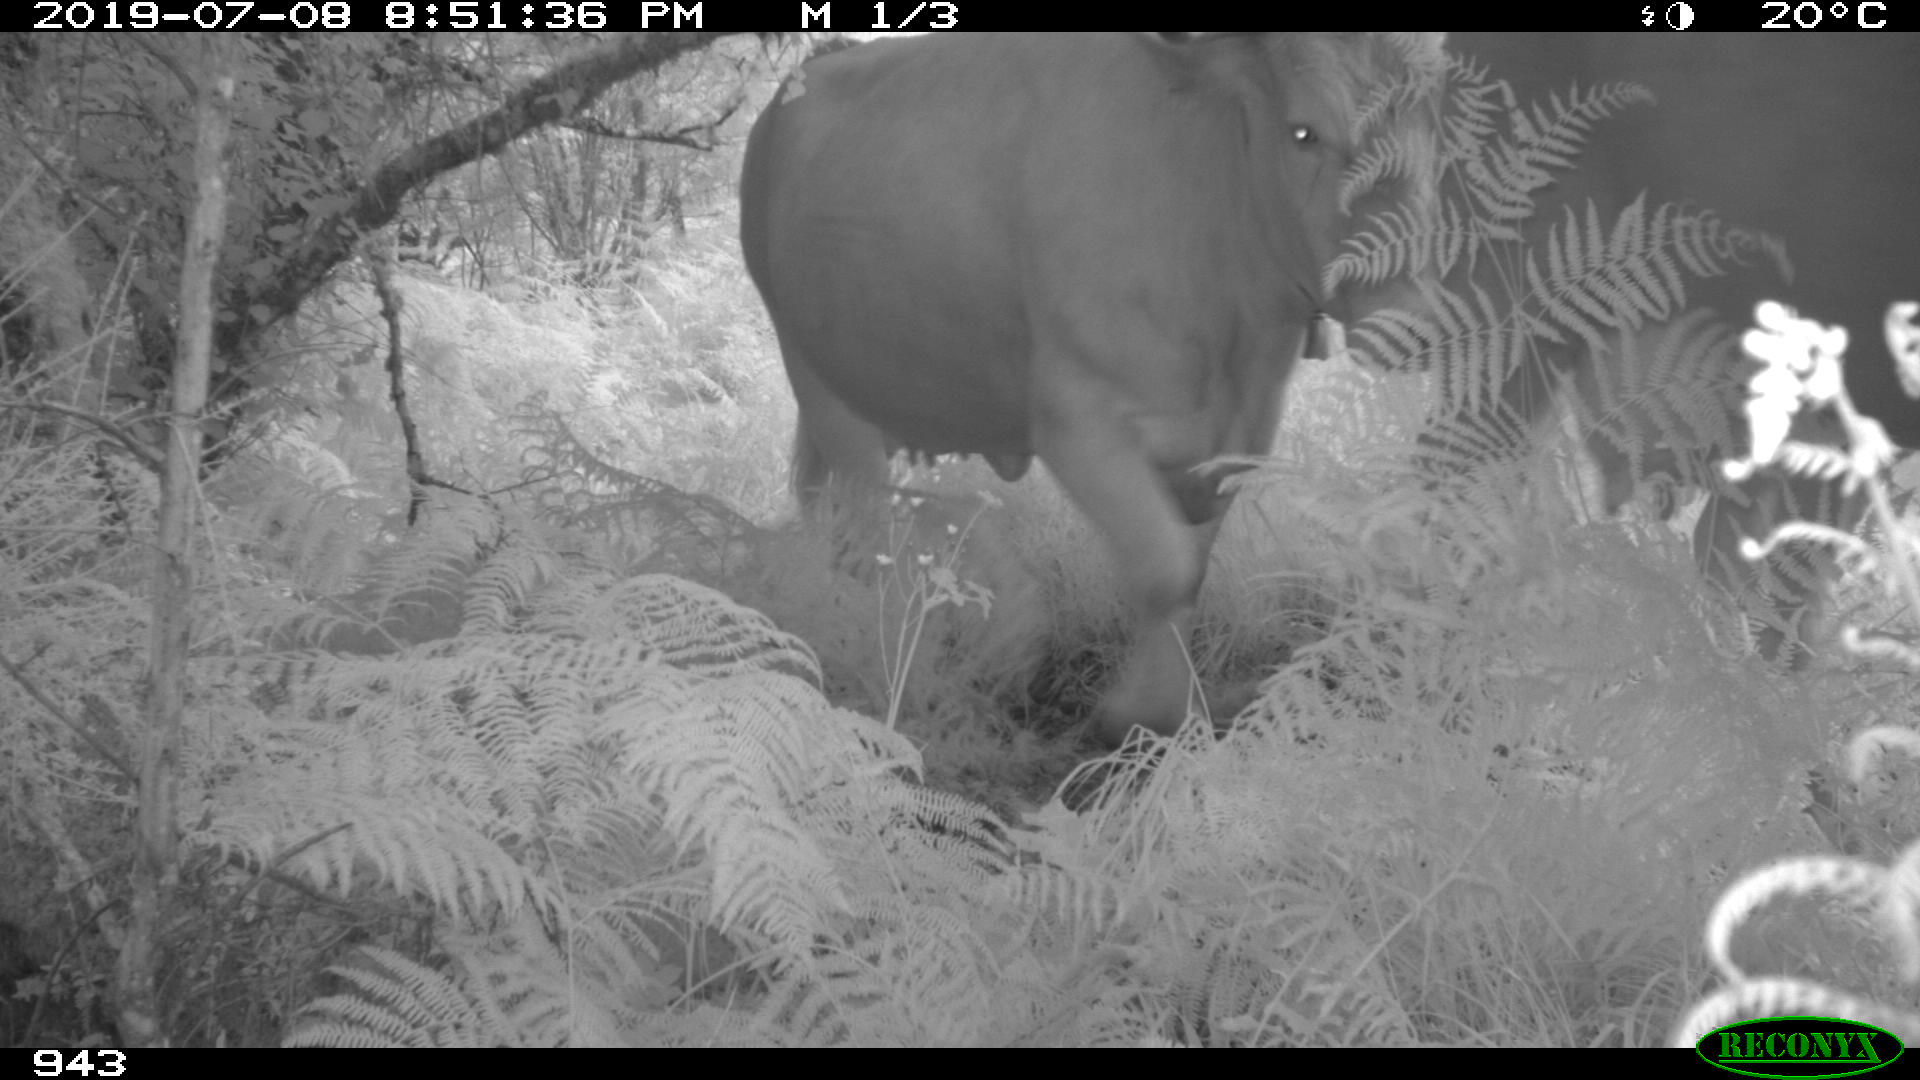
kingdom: Animalia
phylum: Chordata
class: Mammalia
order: Artiodactyla
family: Bovidae
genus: Bos
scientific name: Bos taurus
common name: Domesticated cattle
